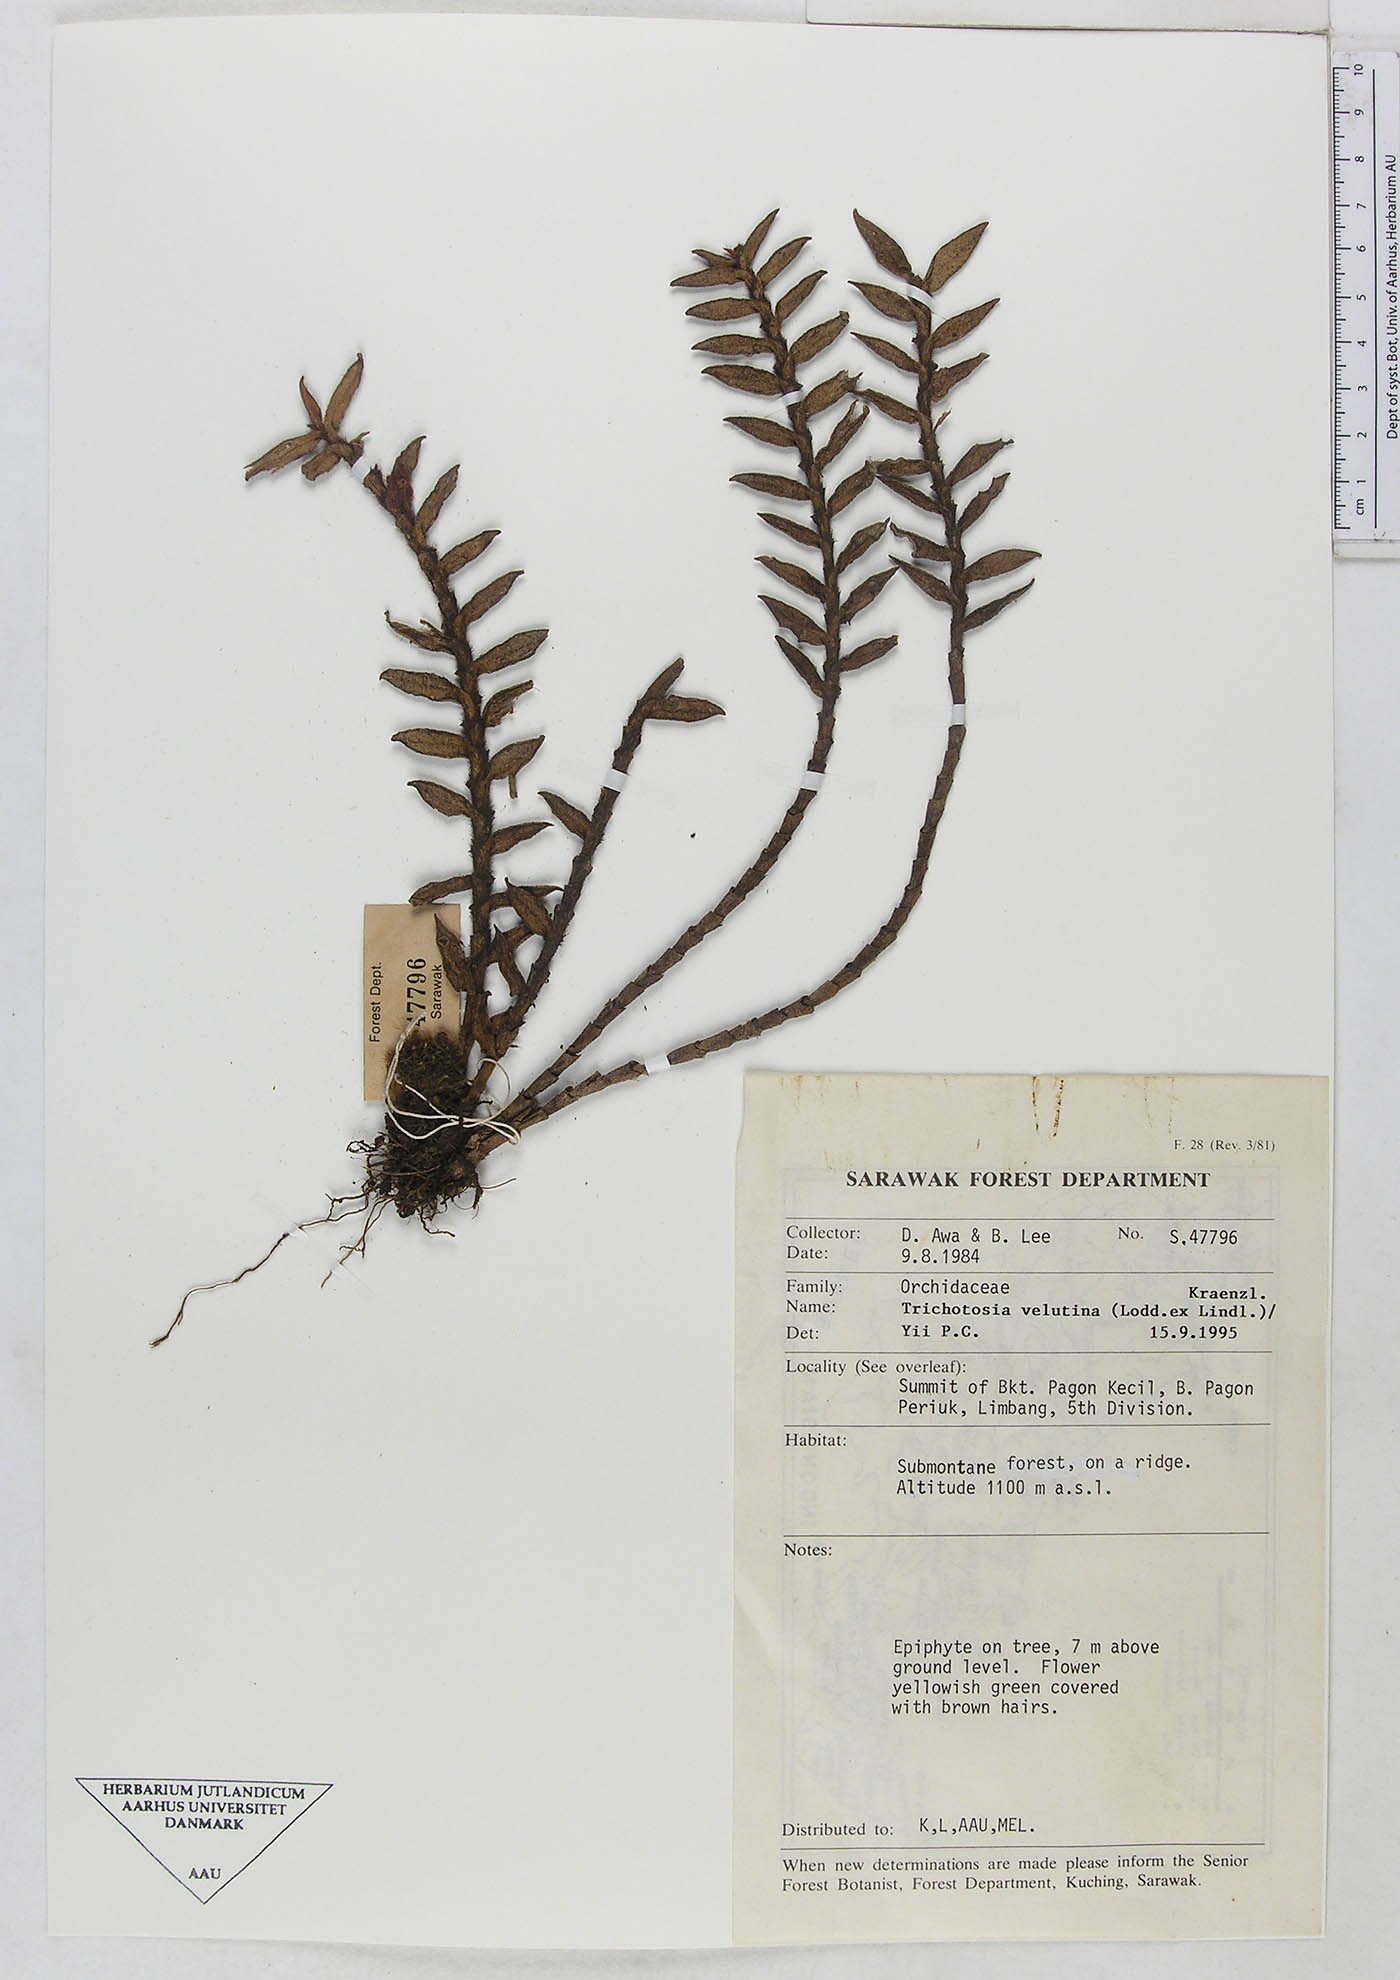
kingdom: Plantae
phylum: Tracheophyta
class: Liliopsida
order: Asparagales
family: Orchidaceae
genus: Trichotosia
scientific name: Trichotosia velutina
